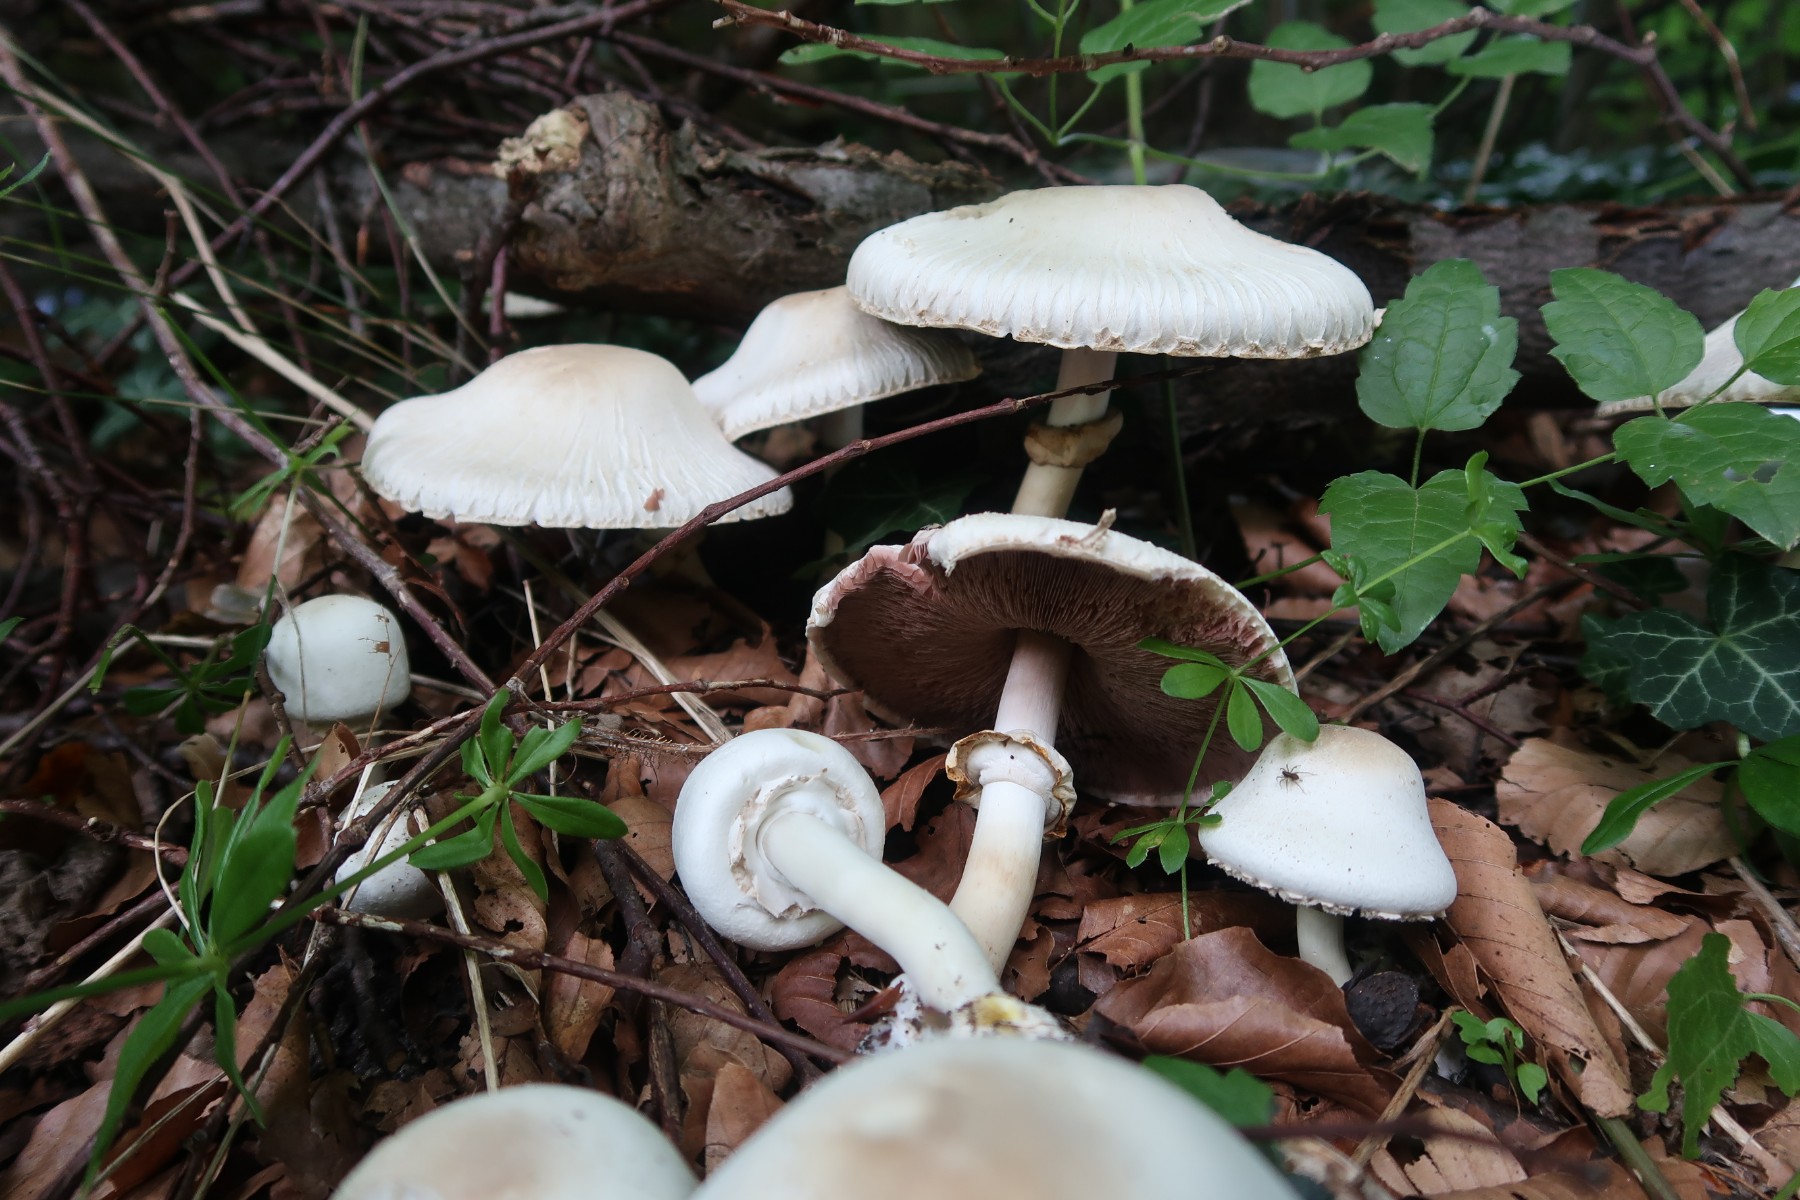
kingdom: Fungi
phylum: Basidiomycota
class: Agaricomycetes
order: Agaricales
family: Agaricaceae
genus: Agaricus
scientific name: Agaricus xanthodermus
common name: karbol-champignon
